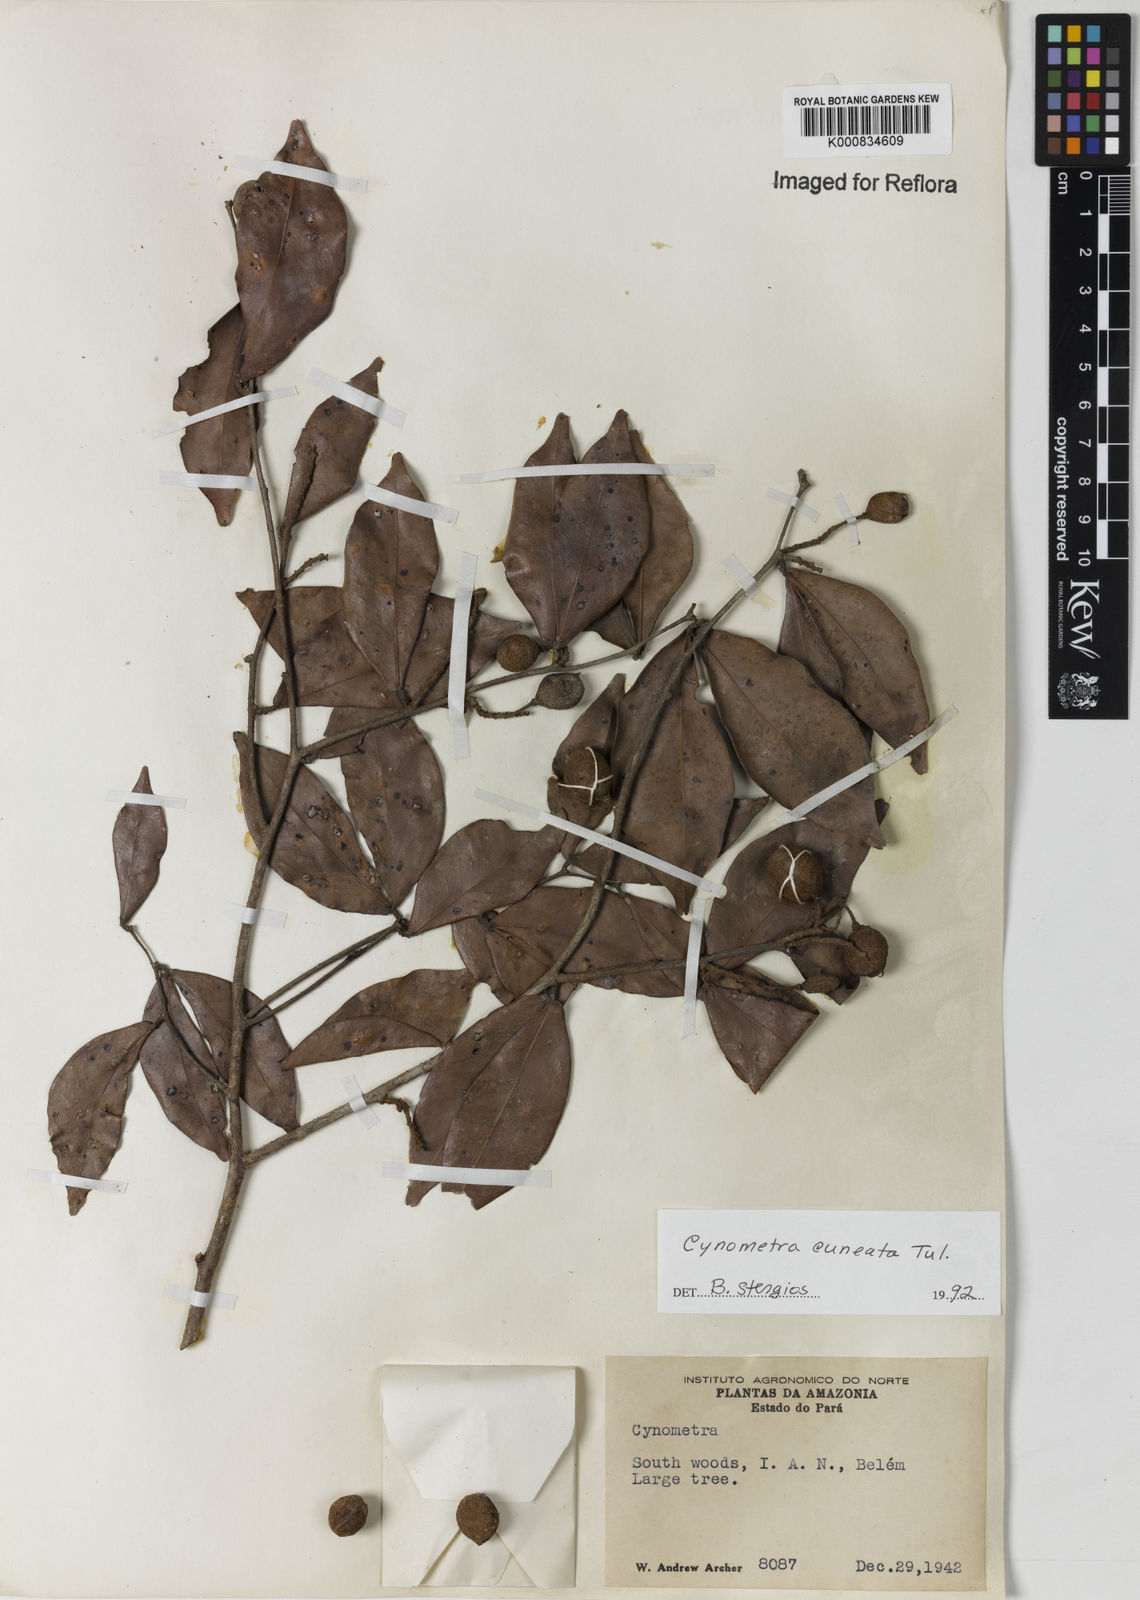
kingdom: Plantae
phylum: Tracheophyta
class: Magnoliopsida
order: Fabales
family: Fabaceae
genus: Cynometra
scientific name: Cynometra cuneata
